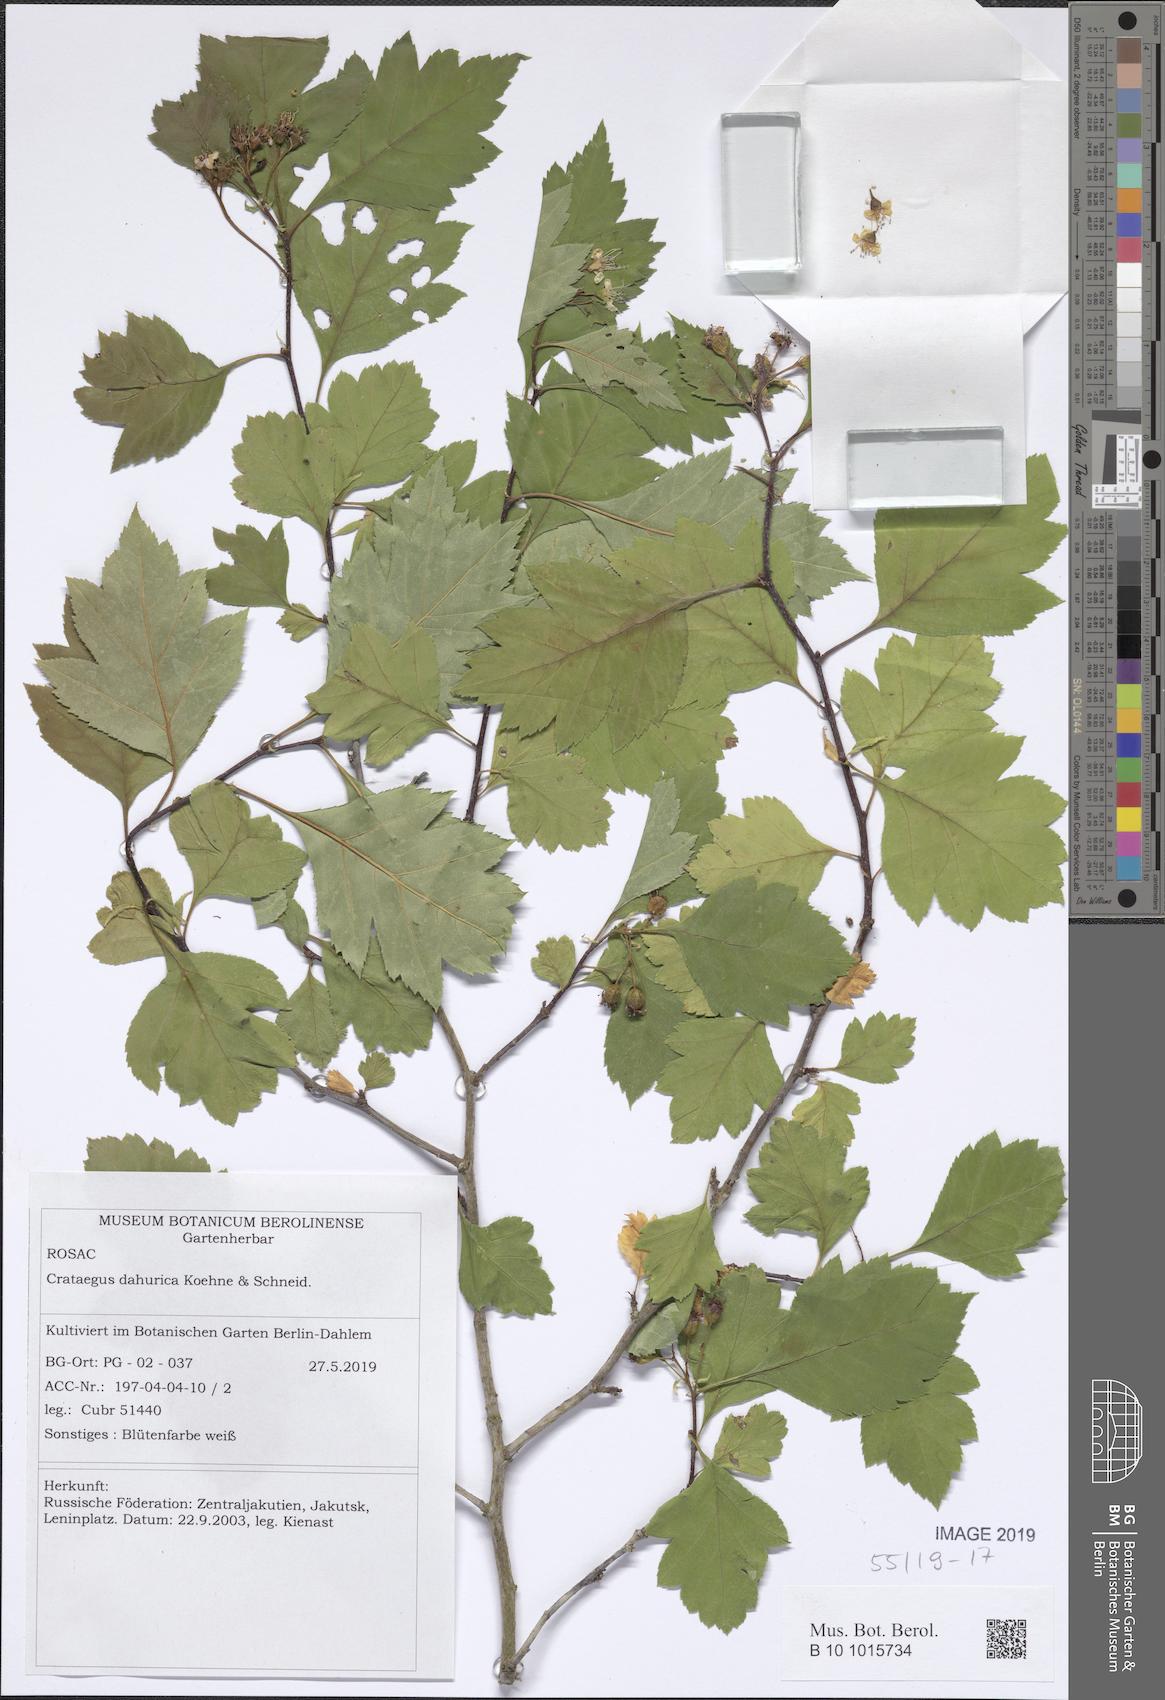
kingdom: Plantae
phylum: Tracheophyta
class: Magnoliopsida
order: Rosales
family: Rosaceae
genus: Crataegus
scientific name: Crataegus dahurica
